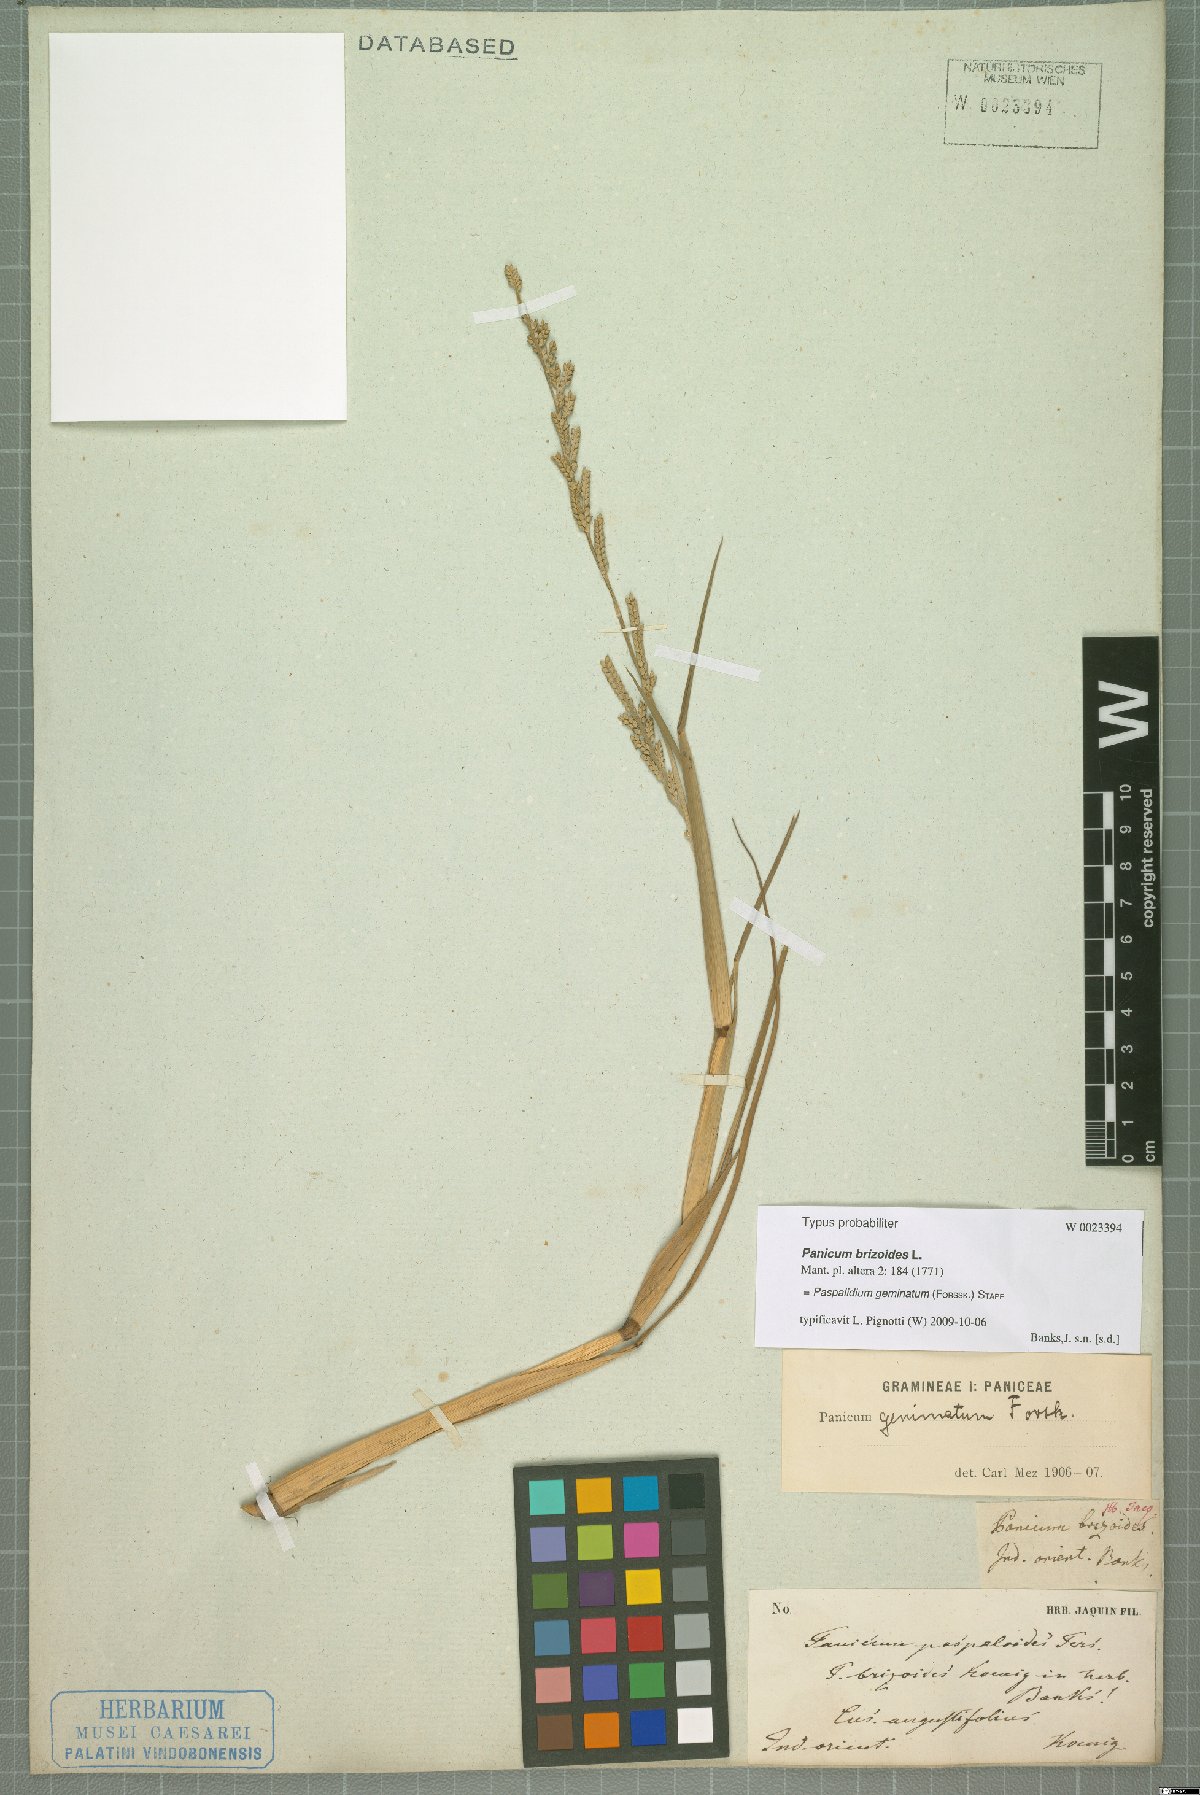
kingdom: Plantae
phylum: Tracheophyta
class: Liliopsida
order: Poales
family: Poaceae
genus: Setaria
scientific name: Setaria geminata
